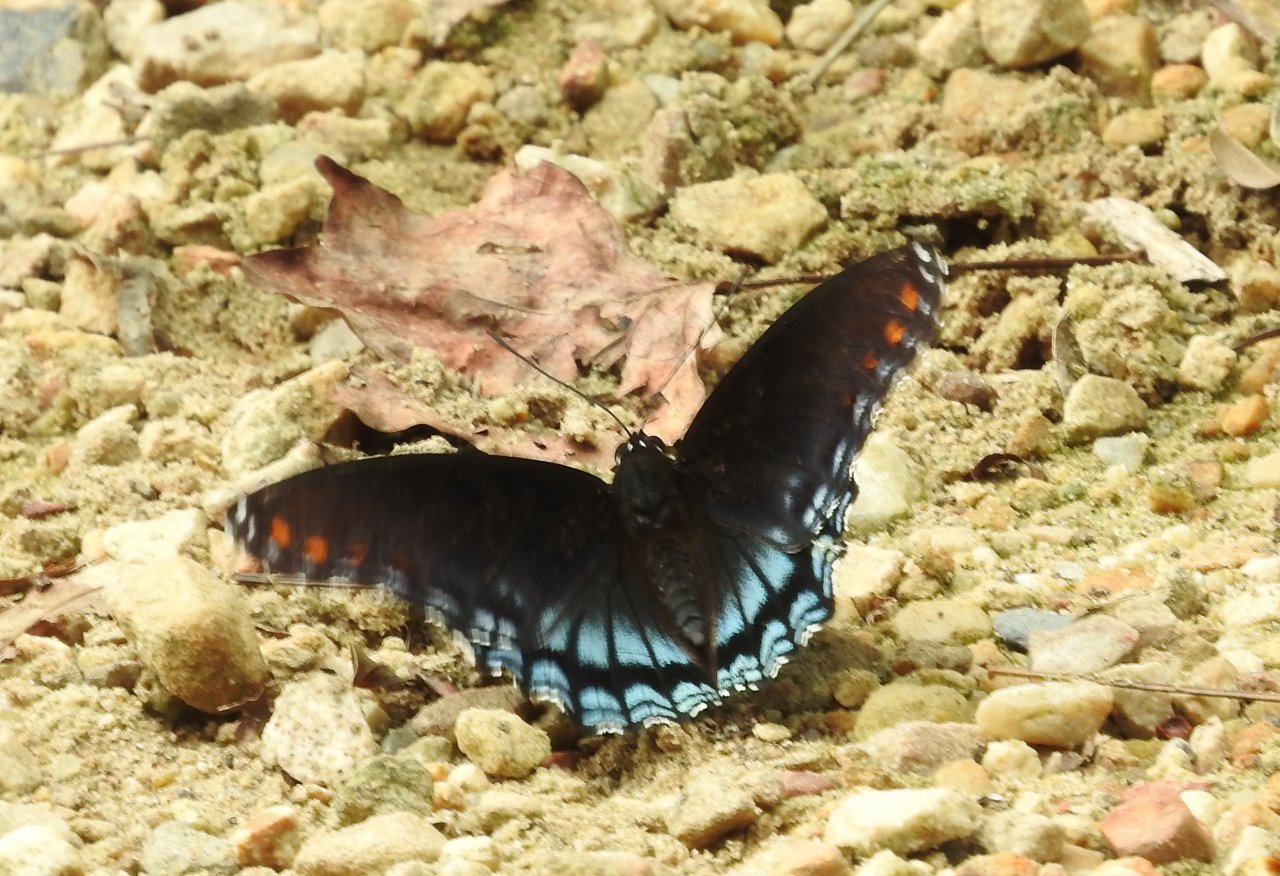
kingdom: Animalia
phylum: Arthropoda
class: Insecta
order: Lepidoptera
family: Nymphalidae
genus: Limenitis
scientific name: Limenitis astyanax
